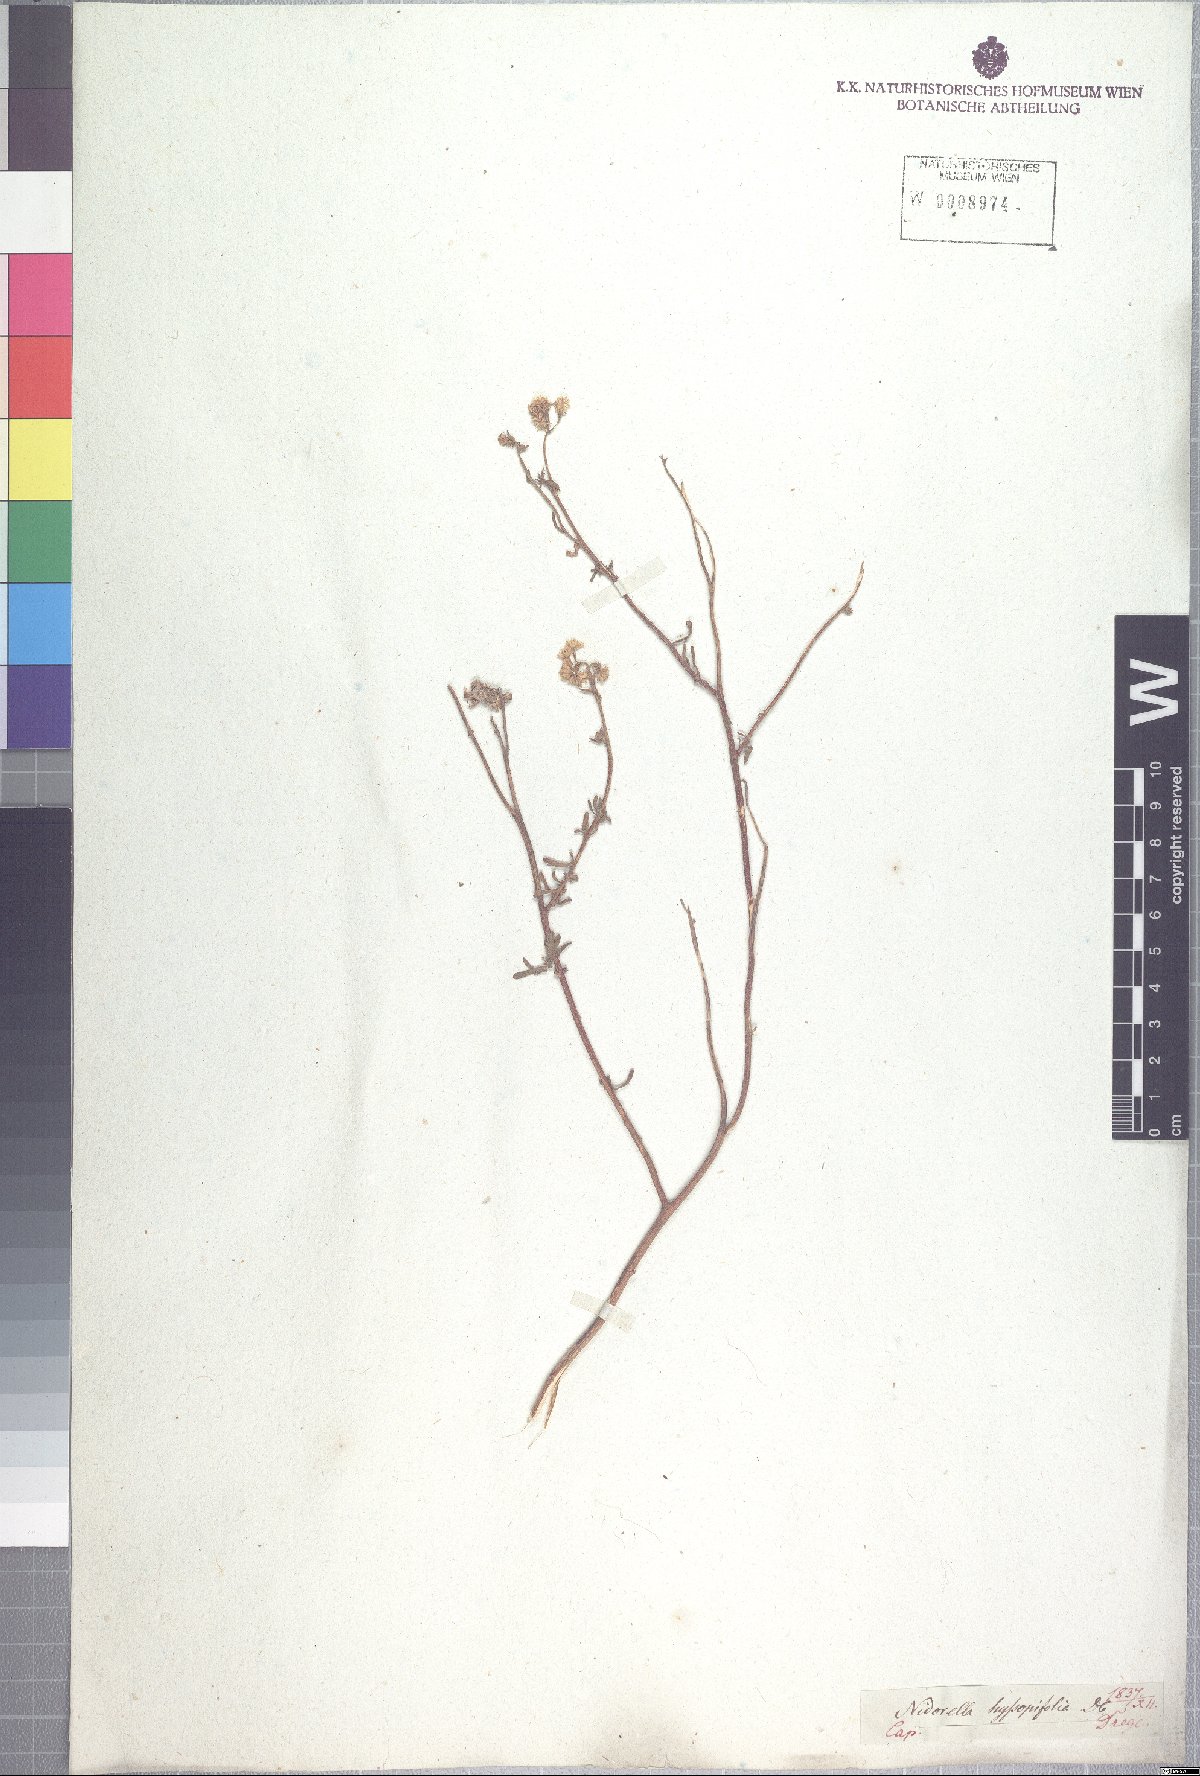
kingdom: Plantae
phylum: Tracheophyta
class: Magnoliopsida
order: Asterales
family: Asteraceae
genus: Nidorella
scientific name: Nidorella foetida
